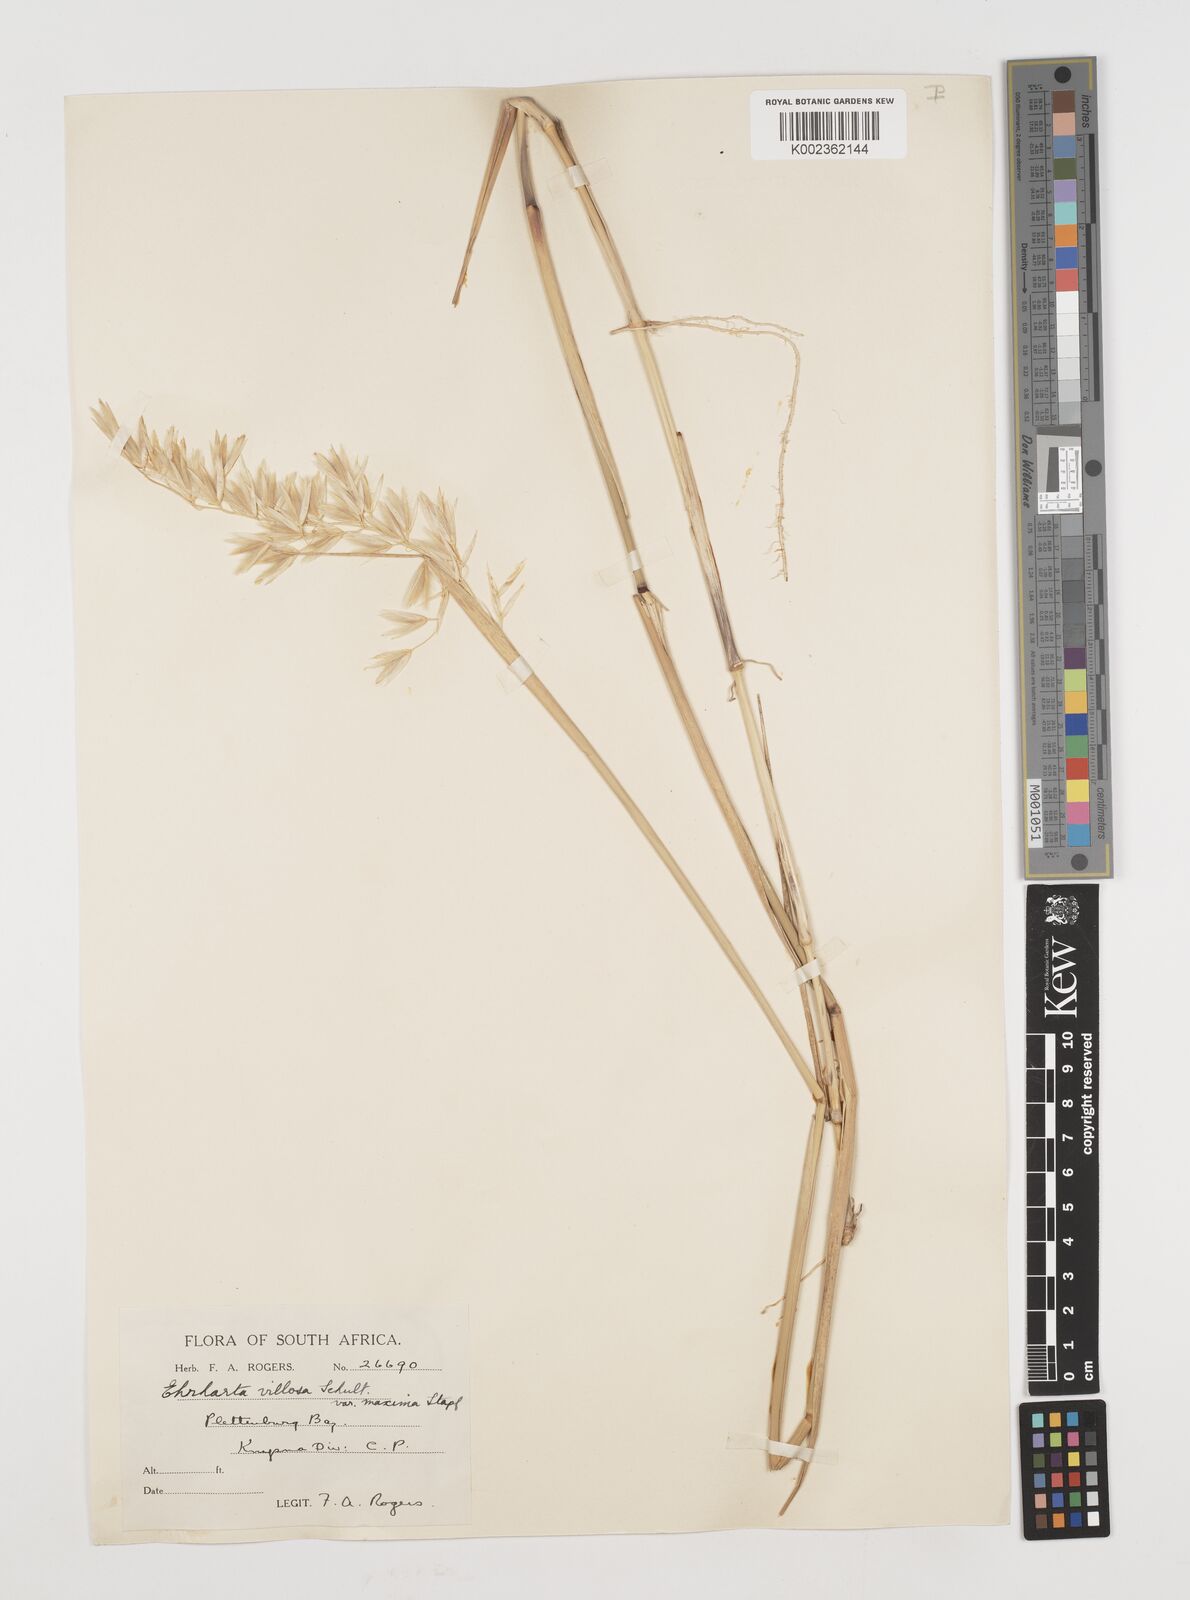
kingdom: Plantae
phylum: Tracheophyta
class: Liliopsida
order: Poales
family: Poaceae
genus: Ehrharta
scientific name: Ehrharta villosa
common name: Pyp grass
